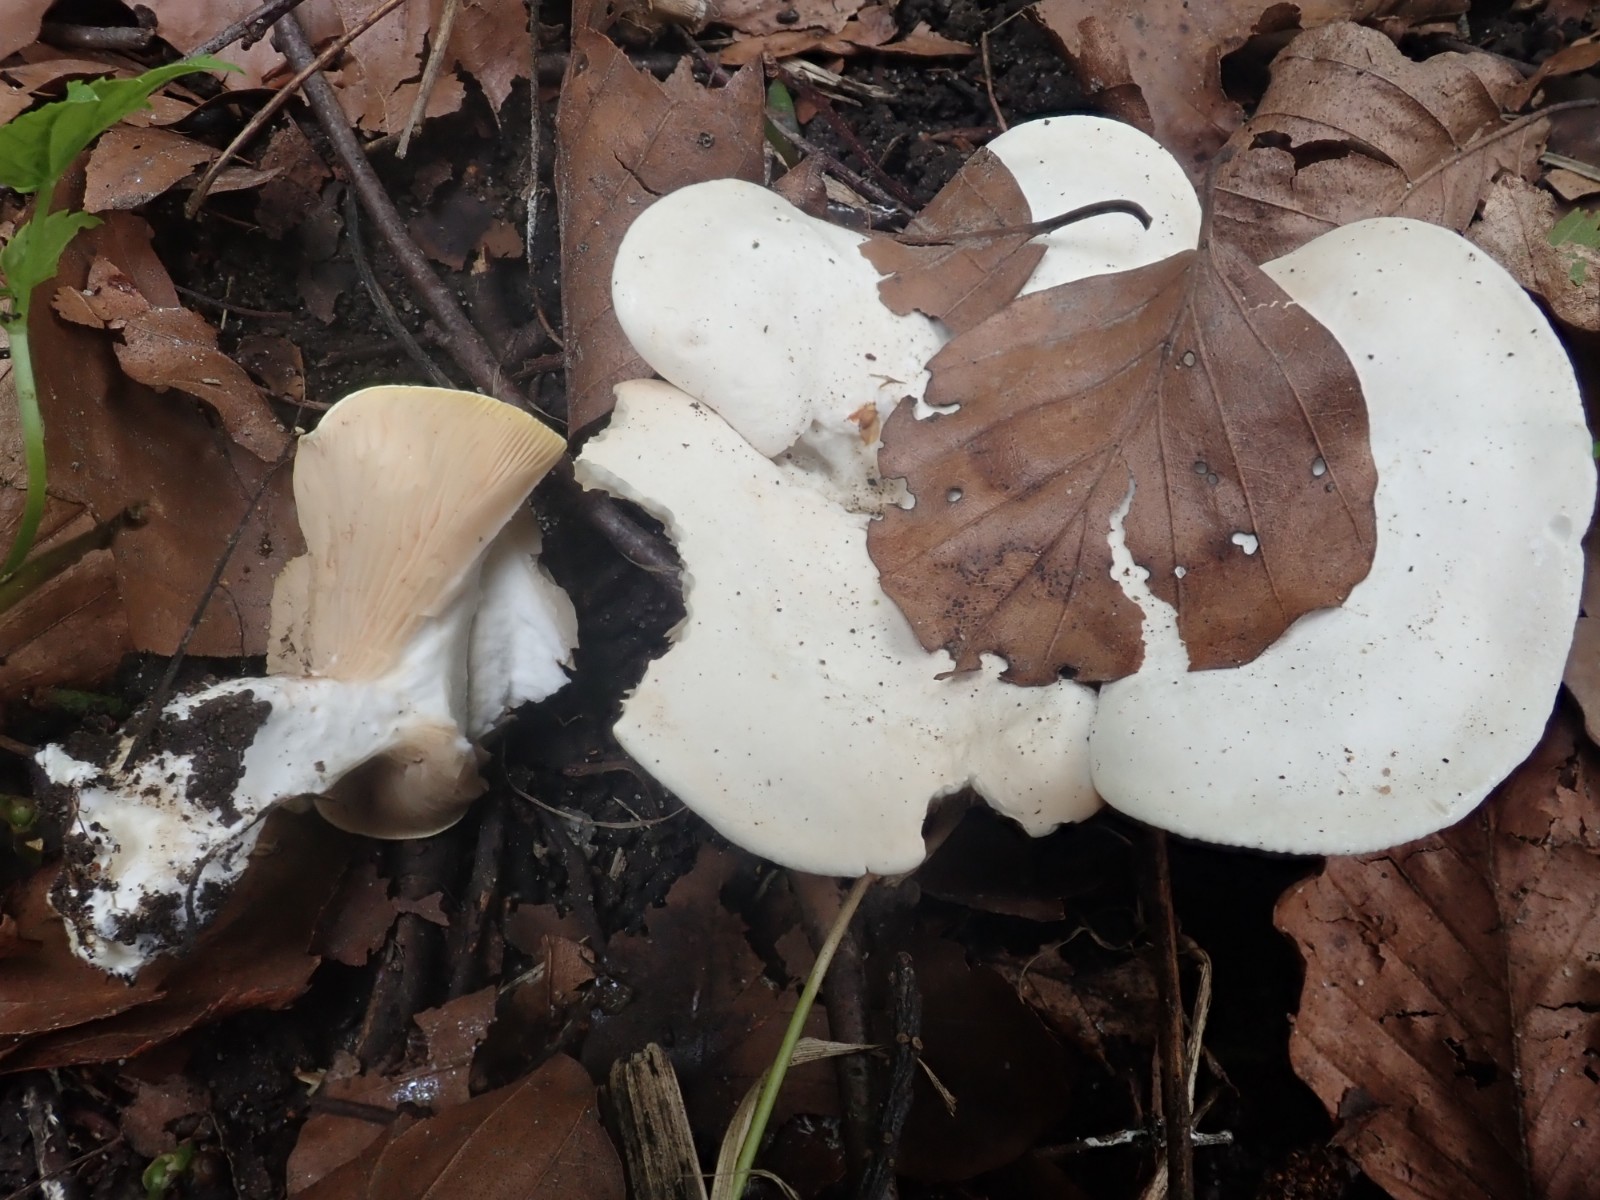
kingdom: Fungi
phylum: Basidiomycota
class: Agaricomycetes
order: Agaricales
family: Entolomataceae
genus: Clitopilus
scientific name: Clitopilus prunulus
